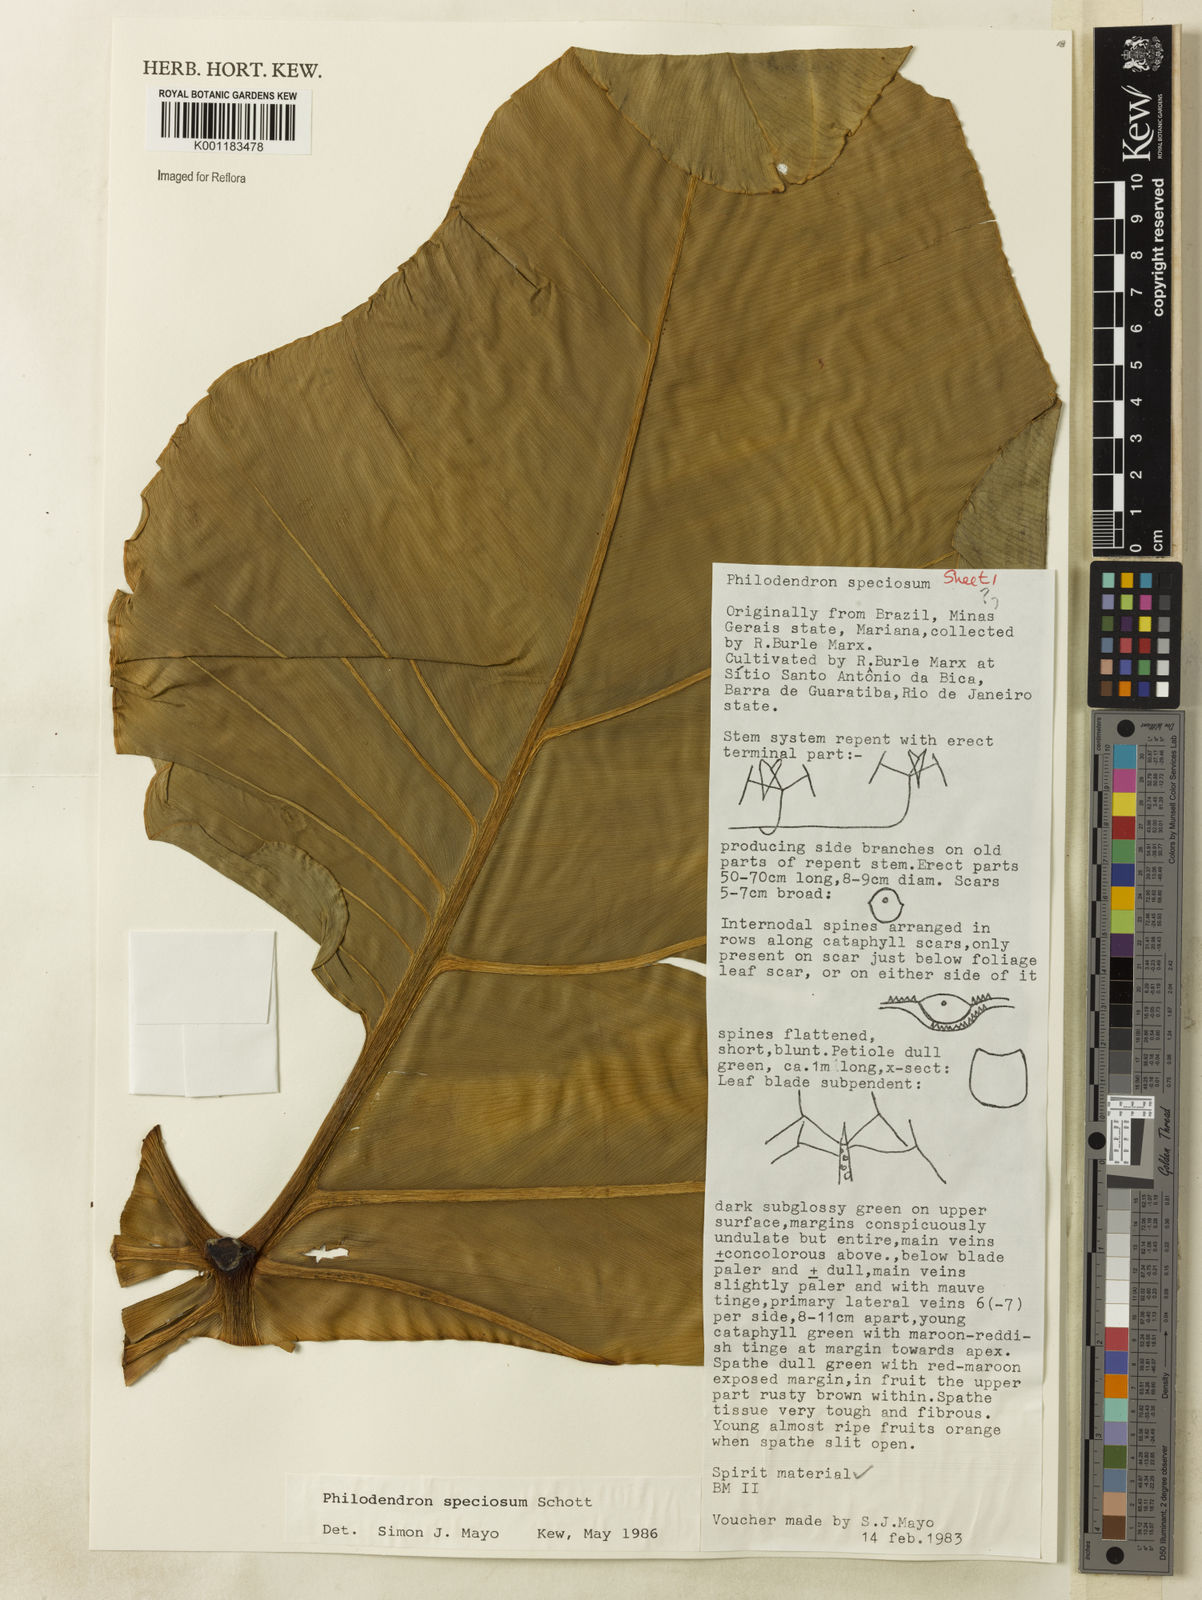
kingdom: Plantae
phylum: Tracheophyta
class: Liliopsida
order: Alismatales
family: Araceae
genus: Thaumatophyllum
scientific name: Thaumatophyllum speciosum
